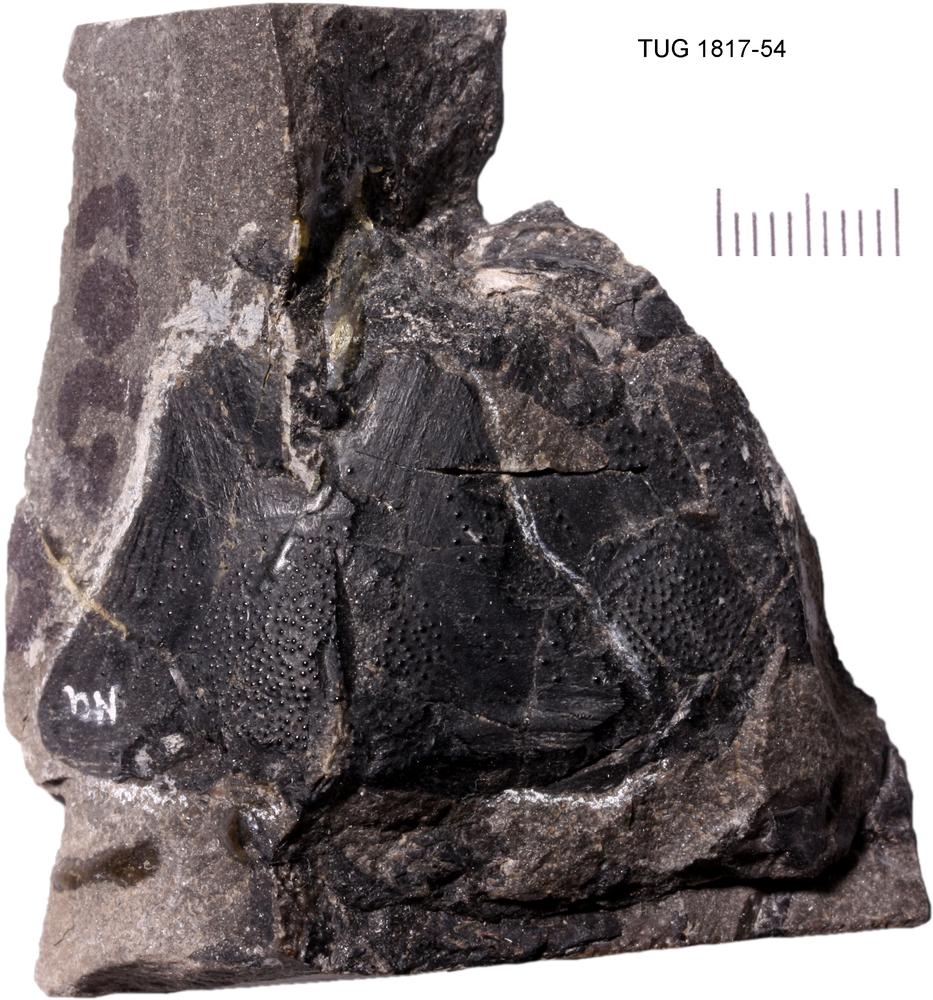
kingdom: Animalia
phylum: Chordata
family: Coccosteidae
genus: Coccosteus
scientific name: Coccosteus cuspidatus
